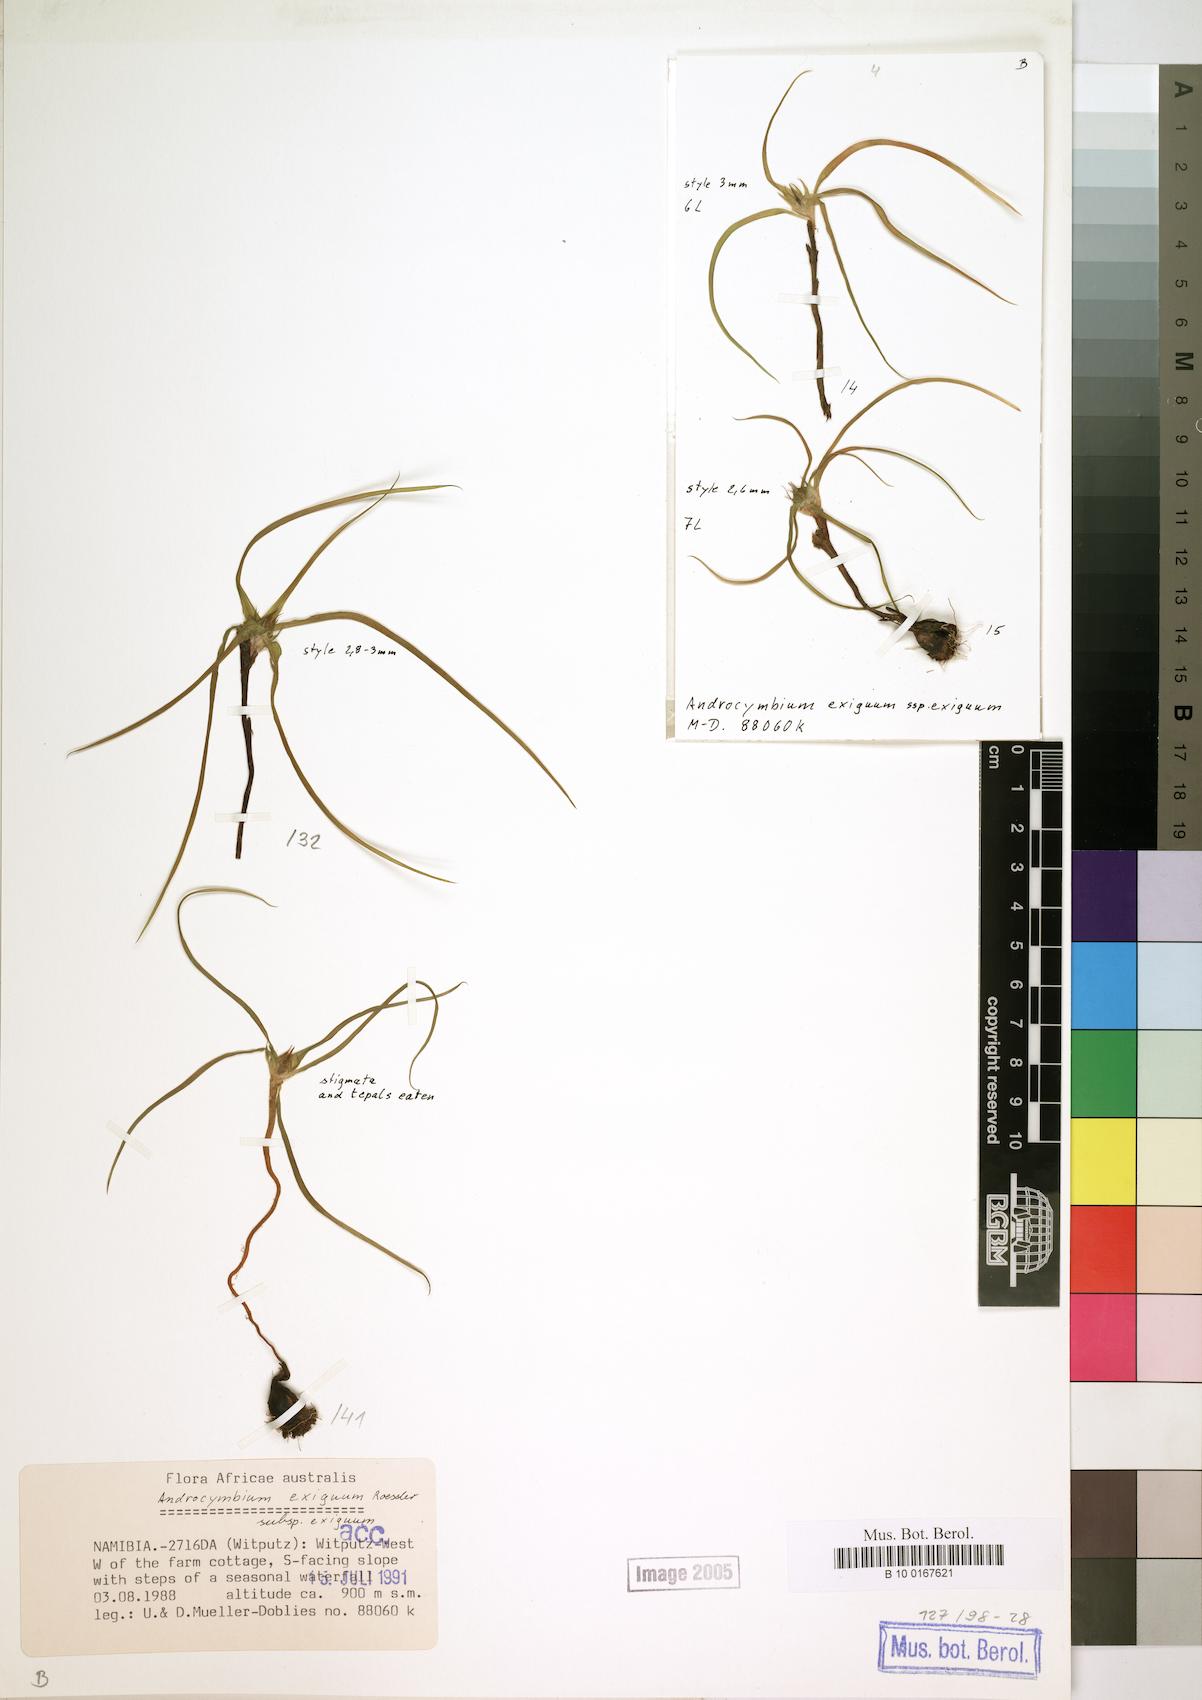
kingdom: Plantae
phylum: Tracheophyta
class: Liliopsida
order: Liliales
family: Colchicaceae
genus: Colchicum
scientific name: Colchicum exiguum
